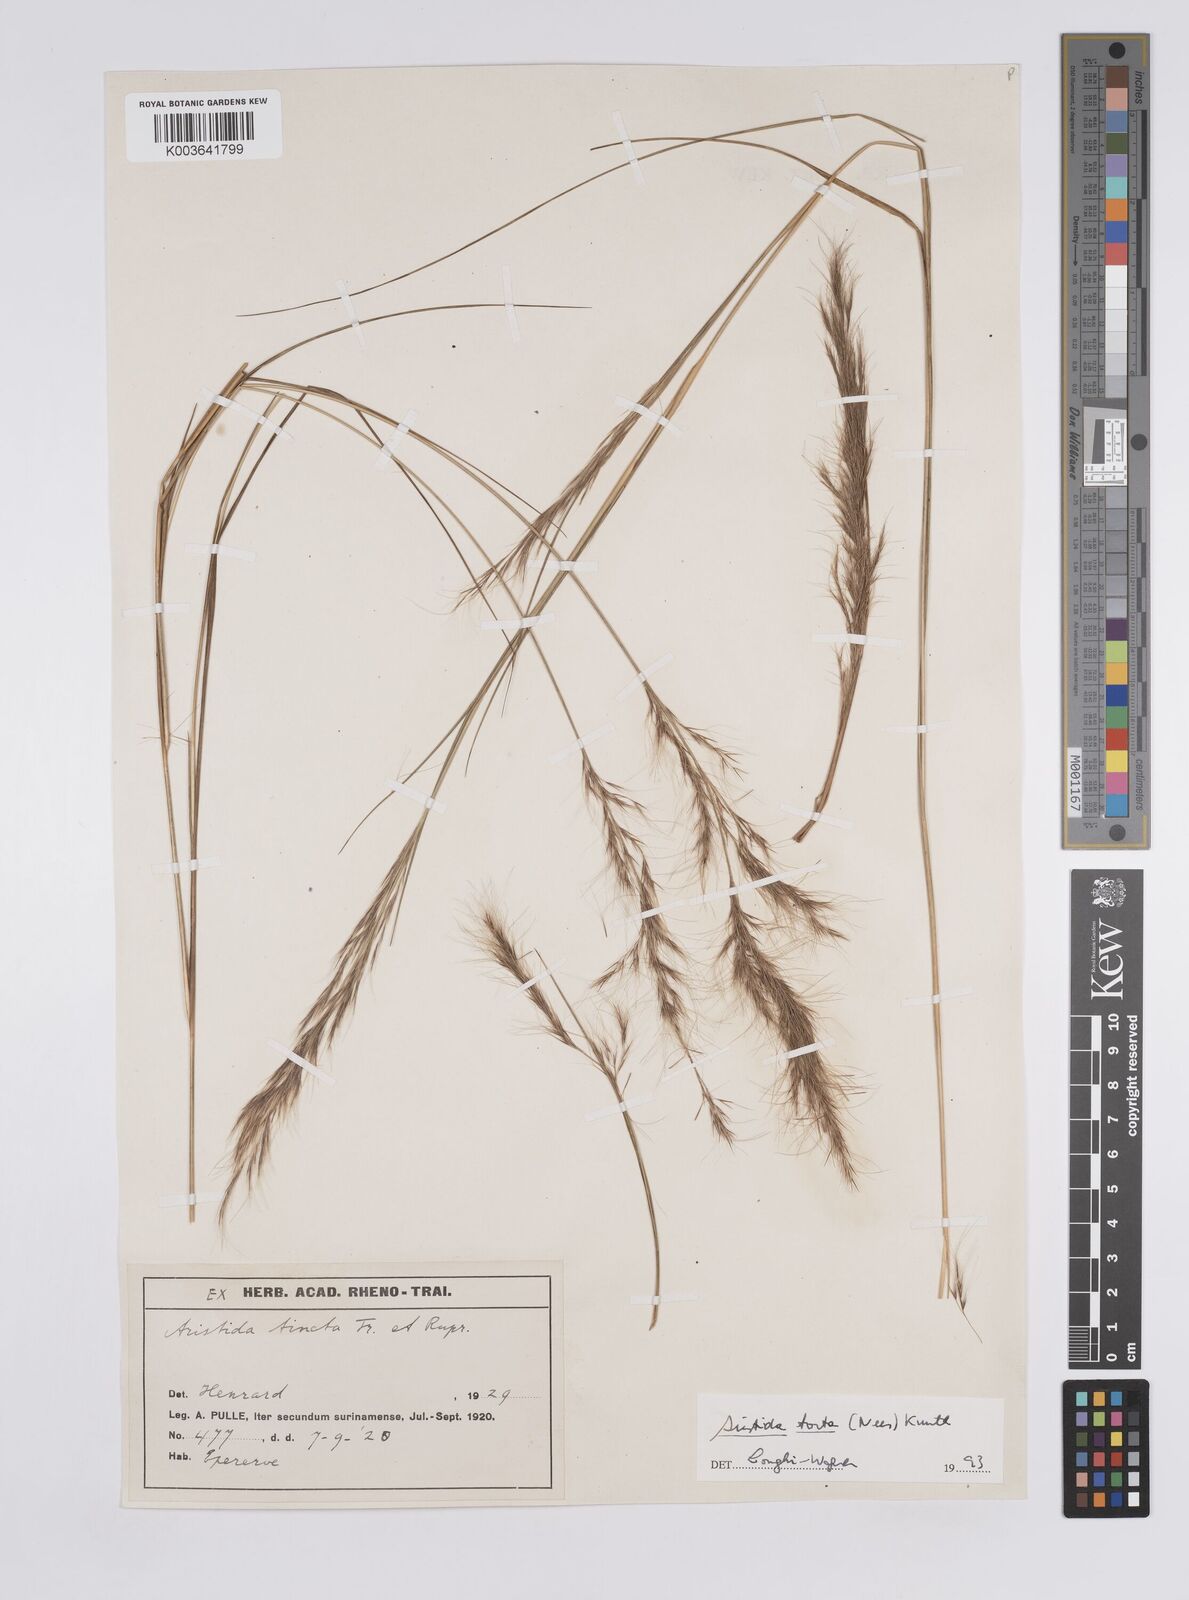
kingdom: Plantae
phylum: Tracheophyta
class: Liliopsida
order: Poales
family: Poaceae
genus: Aristida
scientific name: Aristida torta
